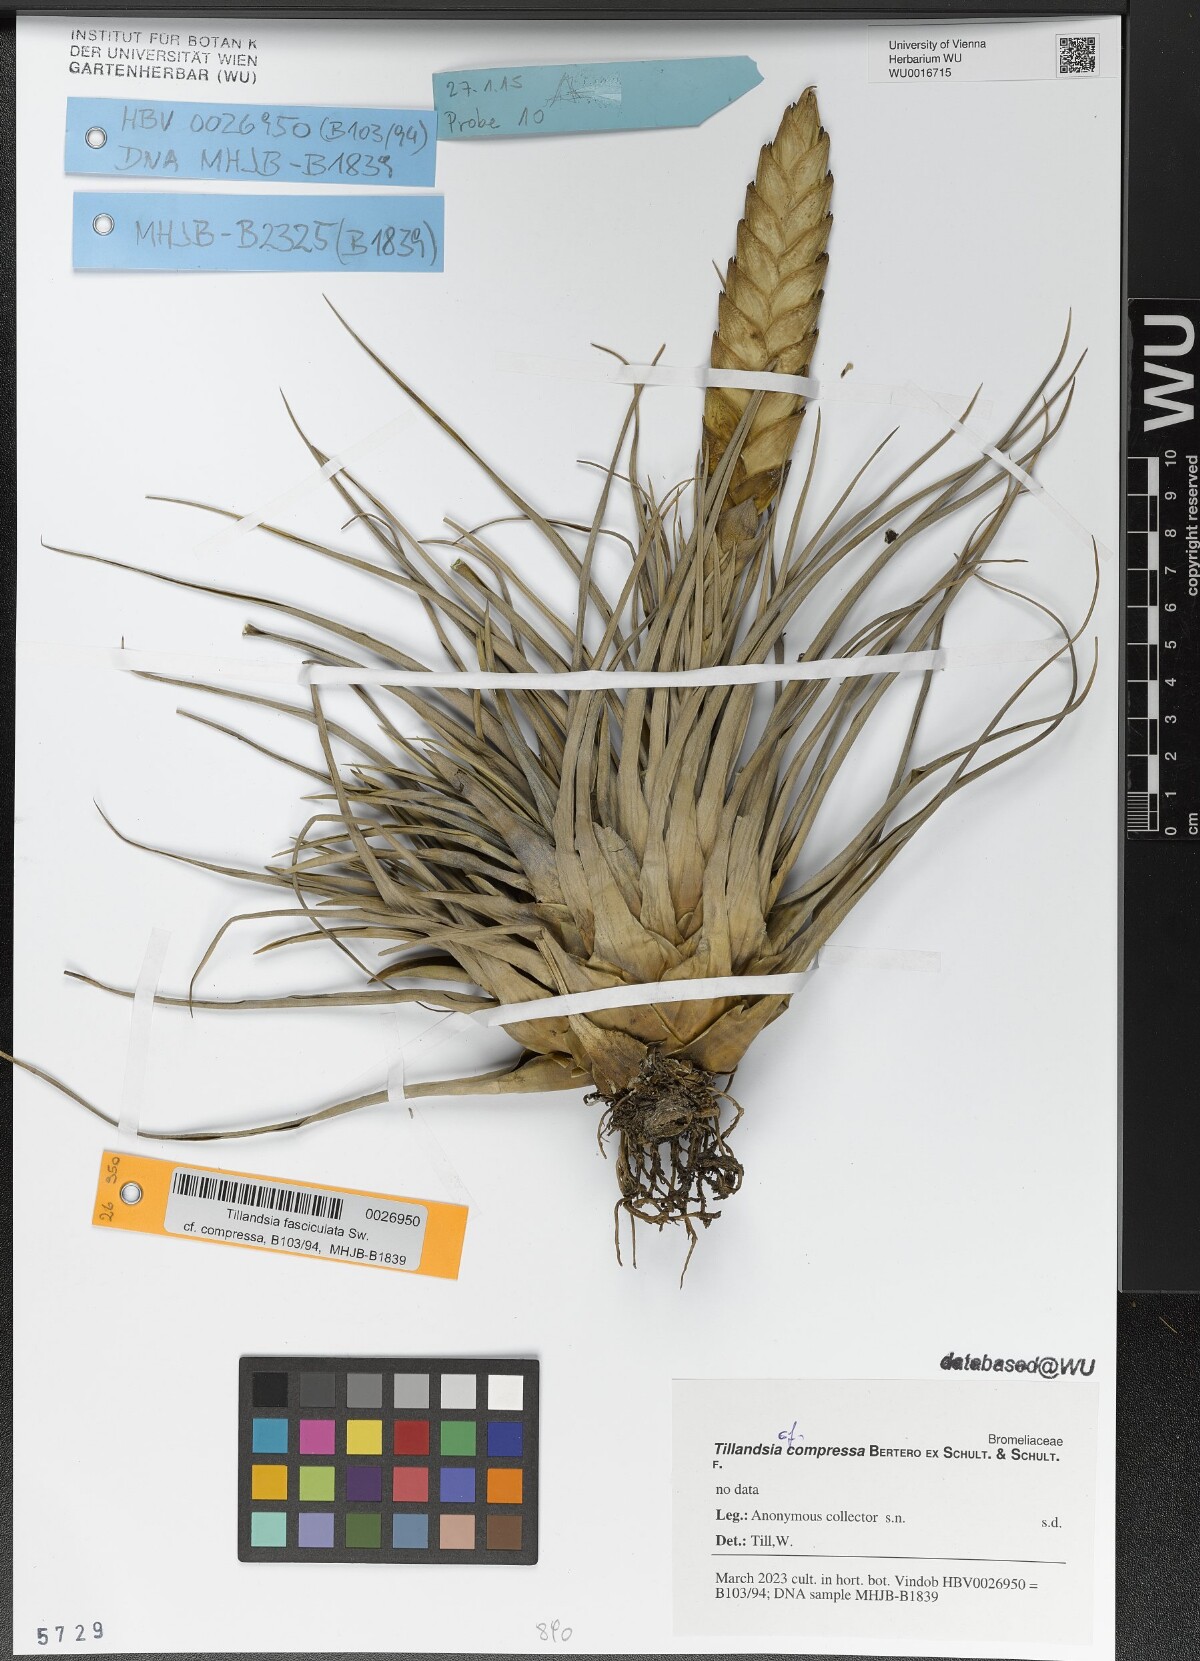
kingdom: Plantae
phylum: Tracheophyta
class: Liliopsida
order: Poales
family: Bromeliaceae
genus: Tillandsia
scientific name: Tillandsia compressa
